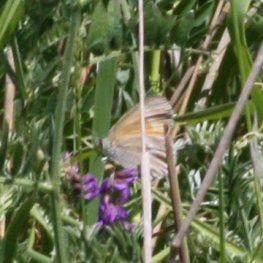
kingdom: Animalia
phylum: Arthropoda
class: Insecta
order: Lepidoptera
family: Nymphalidae
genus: Coenonympha
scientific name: Coenonympha tullia
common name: Large Heath
